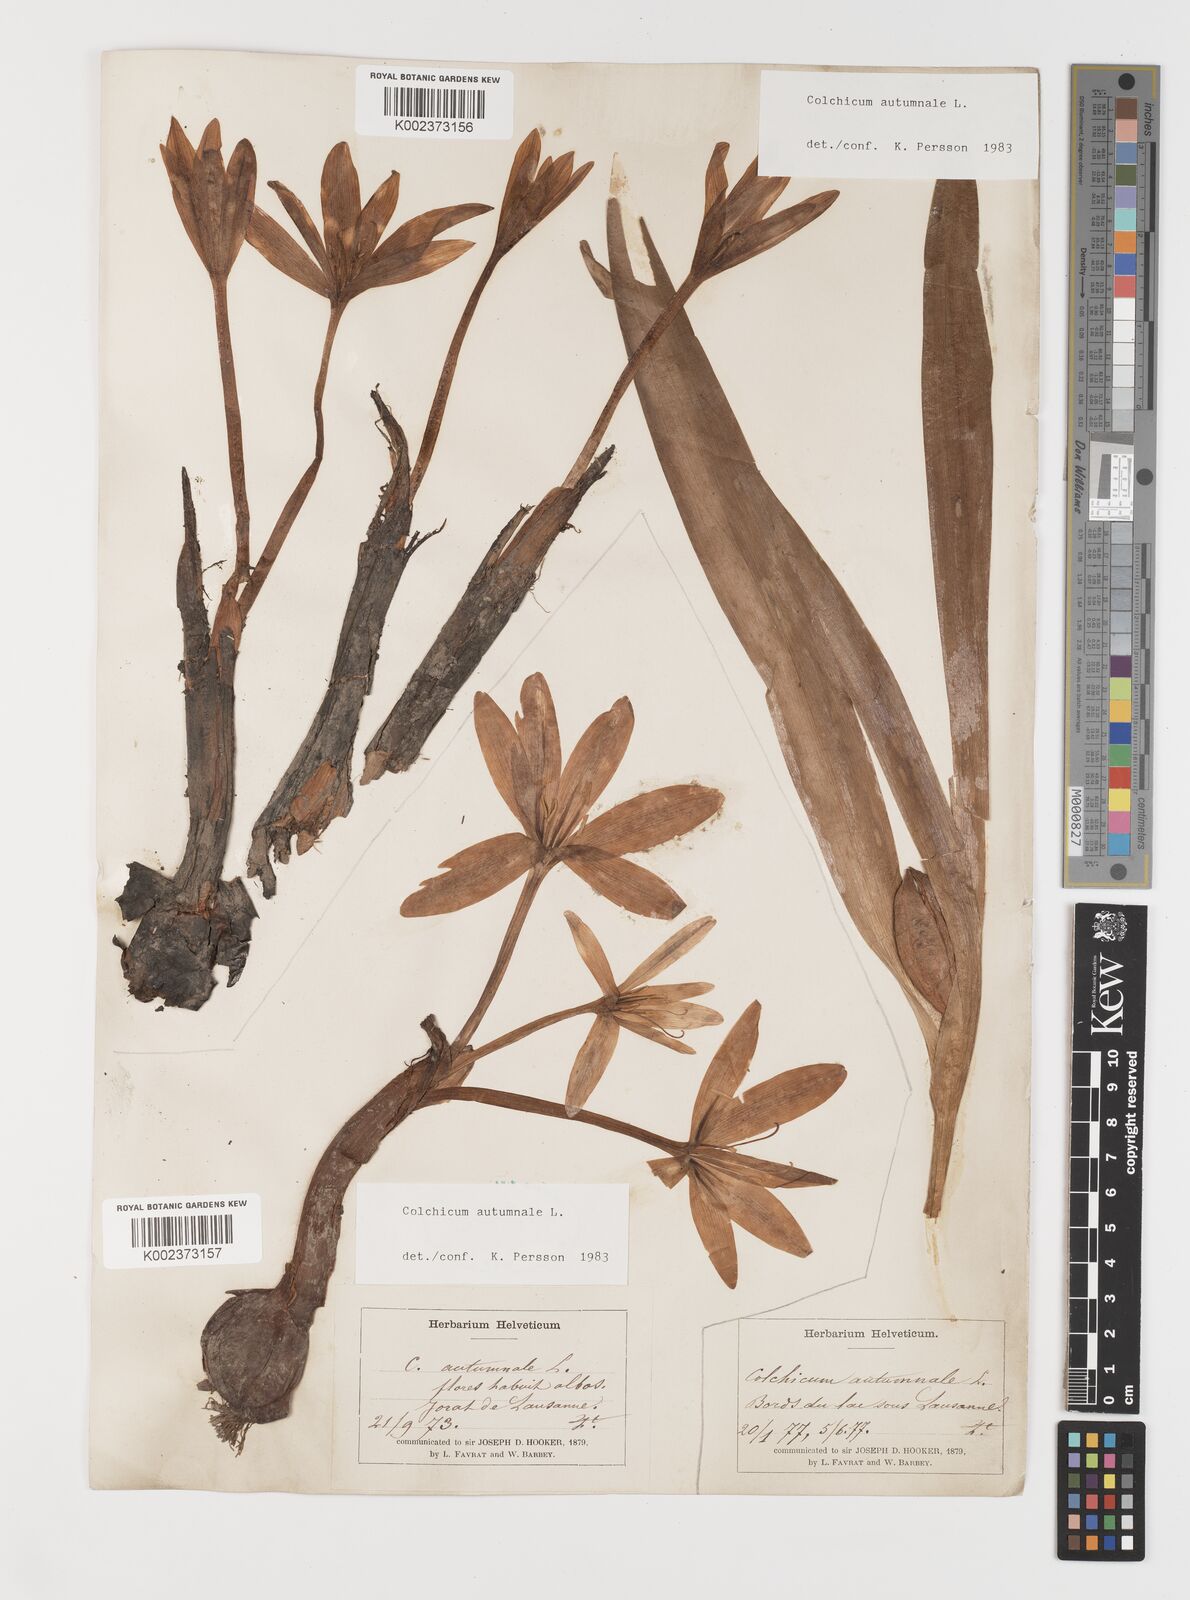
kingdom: Plantae
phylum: Tracheophyta
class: Liliopsida
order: Liliales
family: Colchicaceae
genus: Colchicum
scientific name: Colchicum autumnale
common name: Autumn crocus
